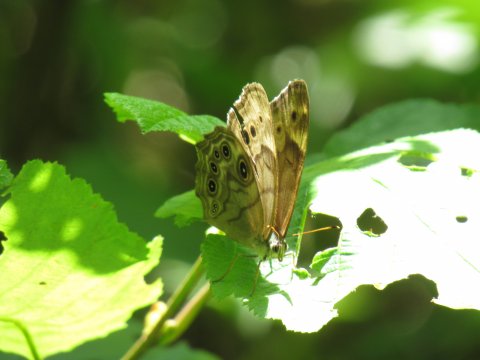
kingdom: Animalia
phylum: Arthropoda
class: Insecta
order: Lepidoptera
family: Nymphalidae
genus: Lethe
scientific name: Lethe anthedon
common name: Northern Pearly-Eye
